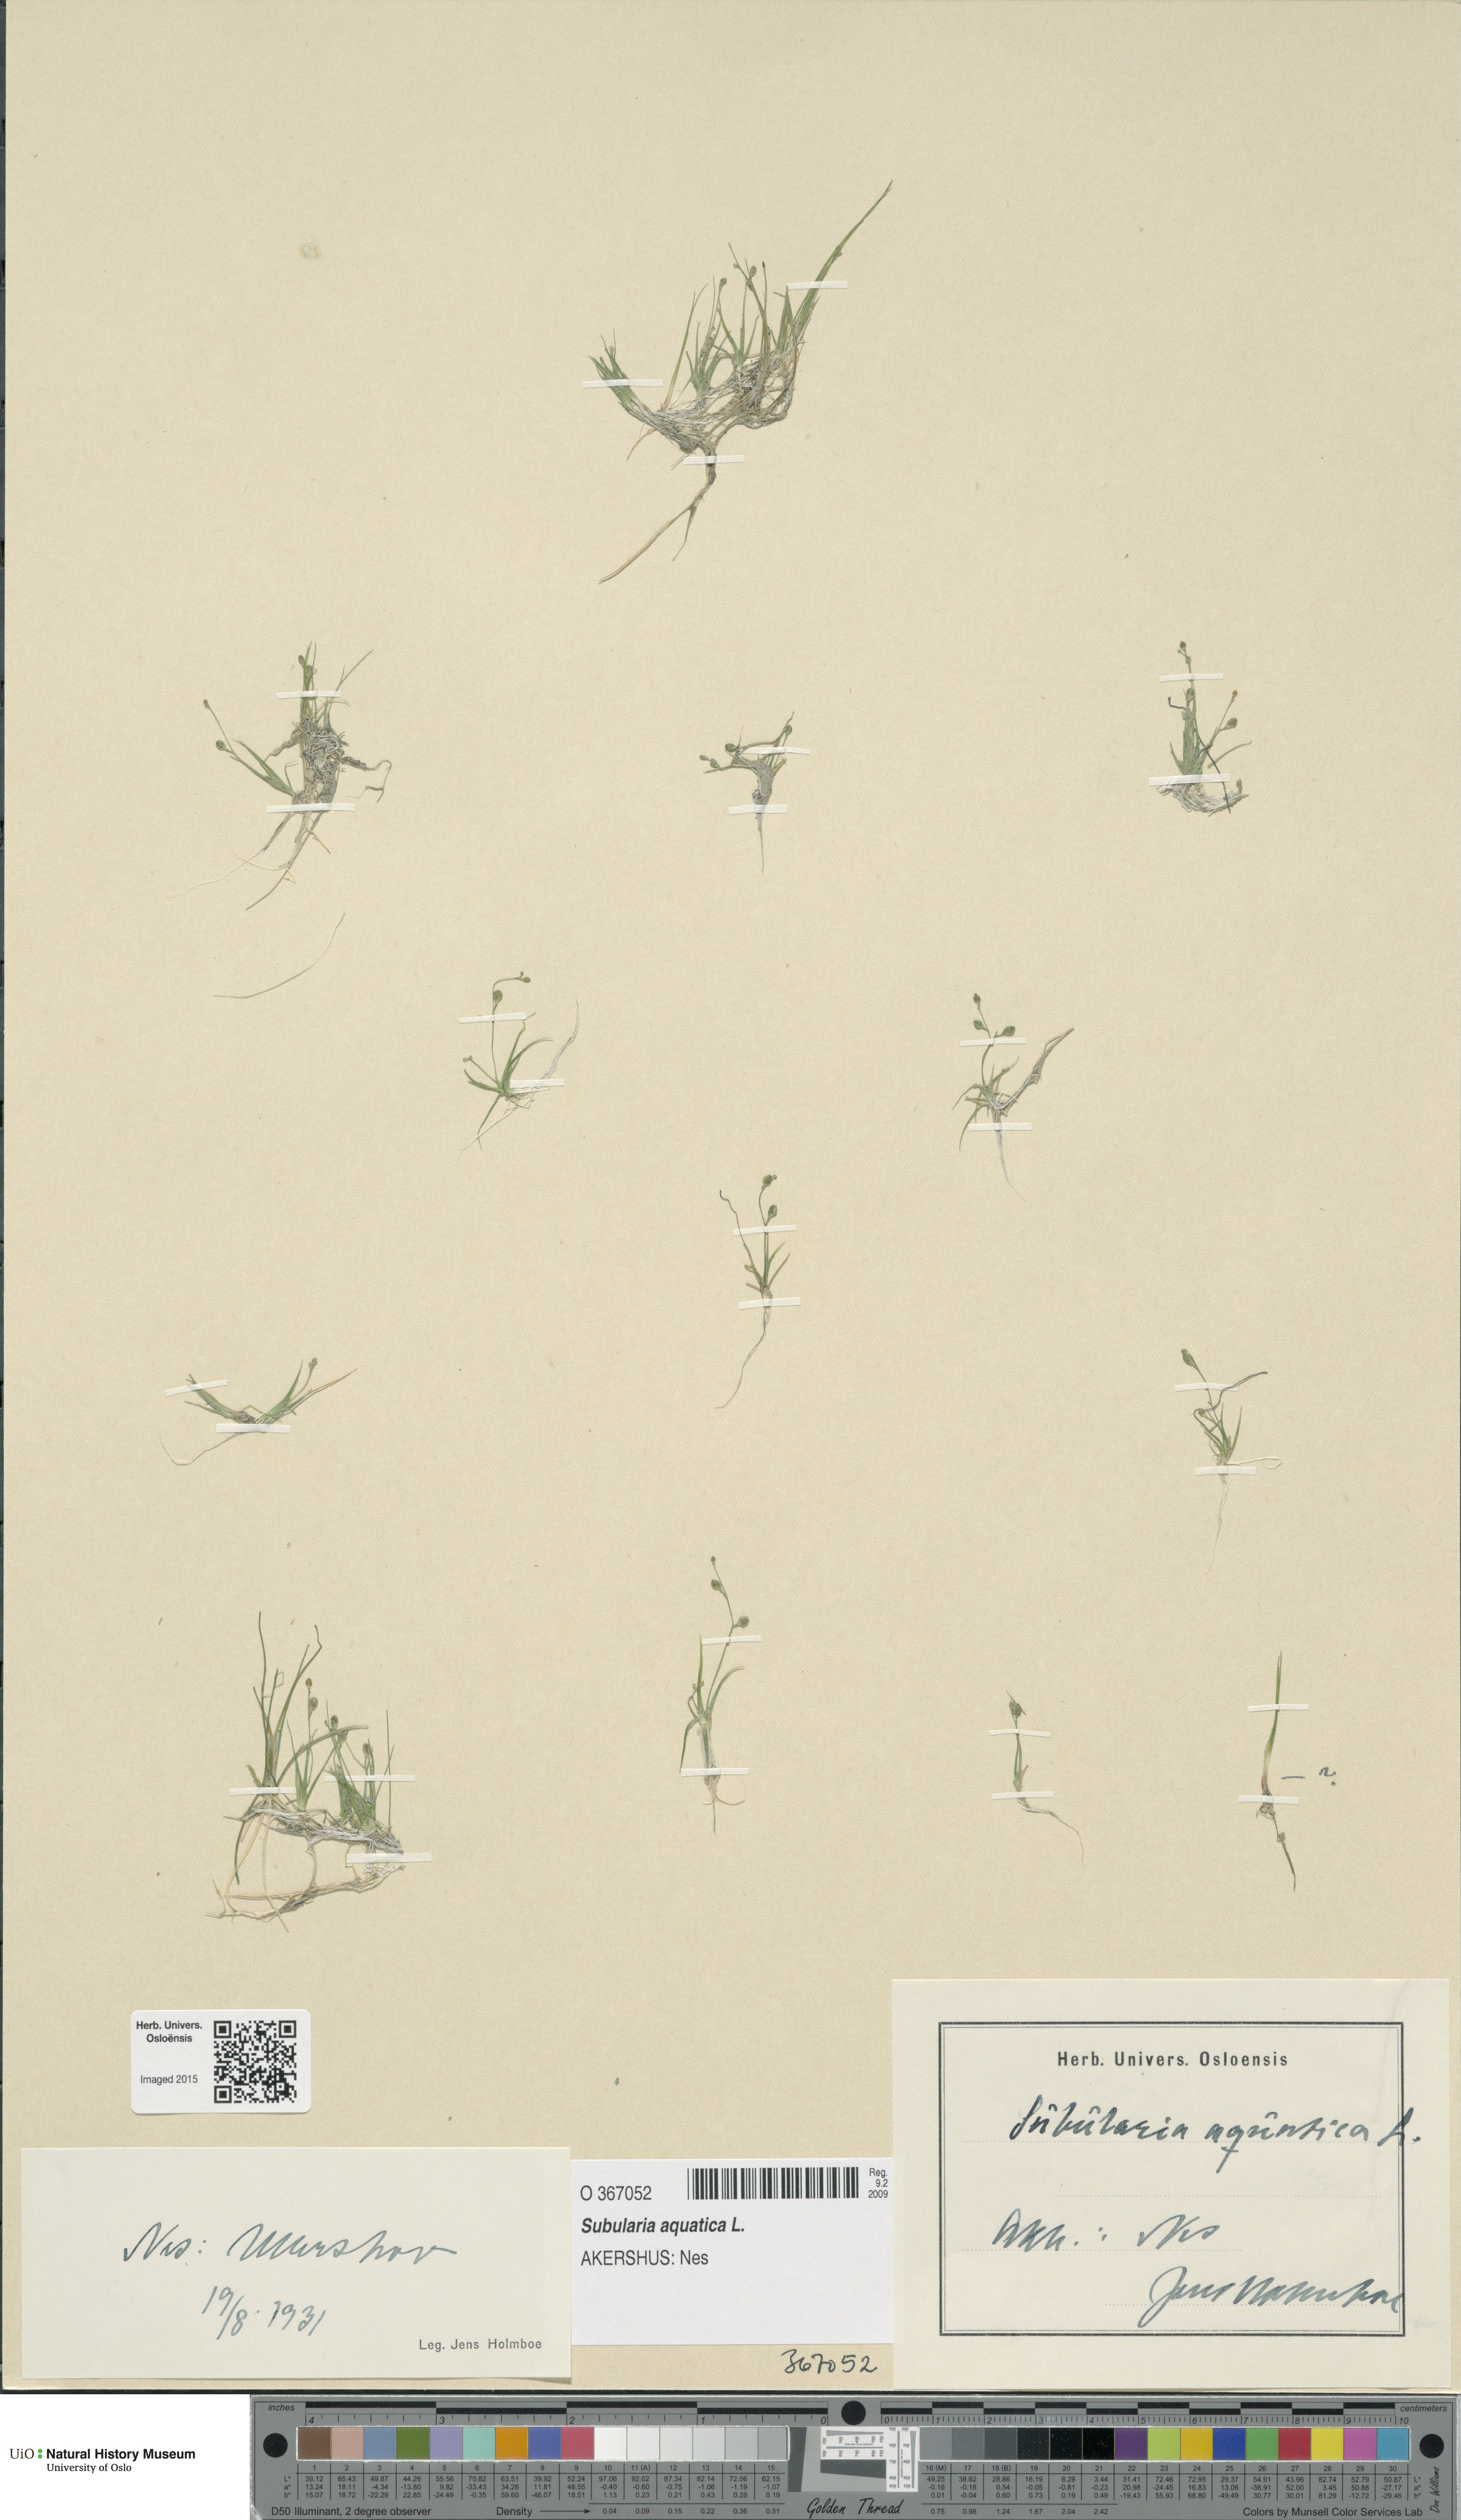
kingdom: Plantae
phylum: Tracheophyta
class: Magnoliopsida
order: Brassicales
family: Brassicaceae
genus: Subularia
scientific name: Subularia aquatica
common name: Awlwort
